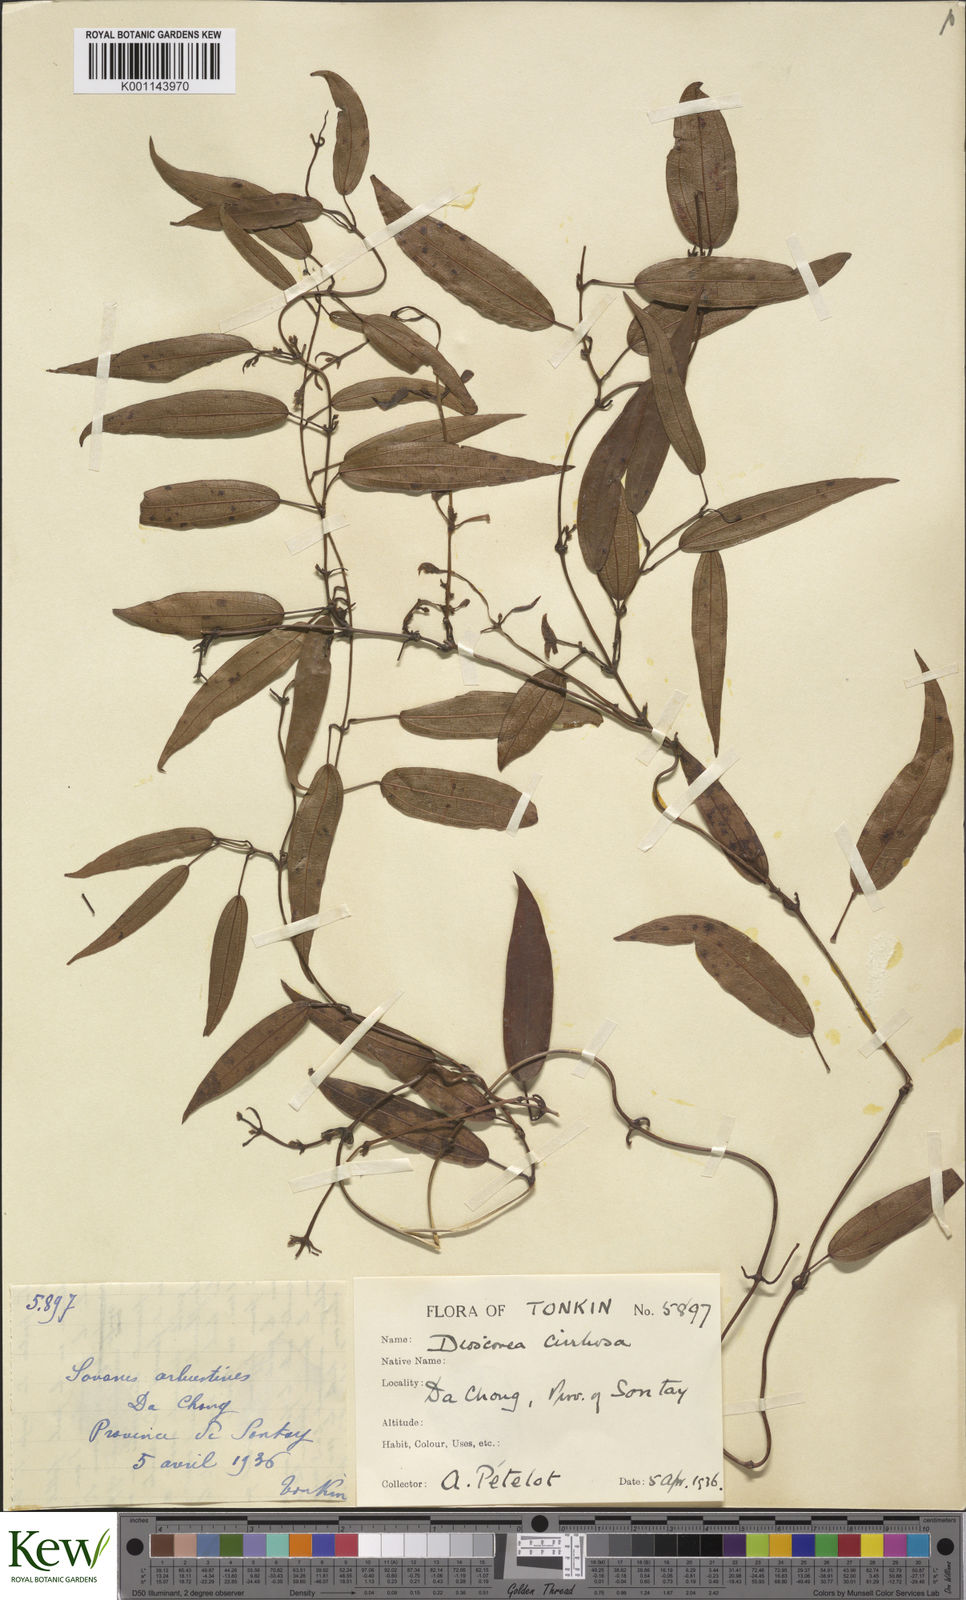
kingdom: Plantae
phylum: Tracheophyta
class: Liliopsida
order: Dioscoreales
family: Dioscoreaceae
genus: Dioscorea
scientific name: Dioscorea cirrhosa
